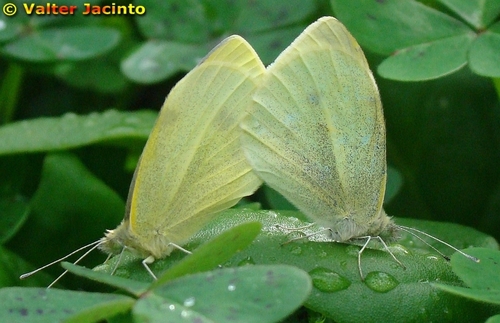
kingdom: Animalia
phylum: Arthropoda
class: Insecta
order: Lepidoptera
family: Pieridae
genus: Pieris
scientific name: Pieris rapae
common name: Small white
